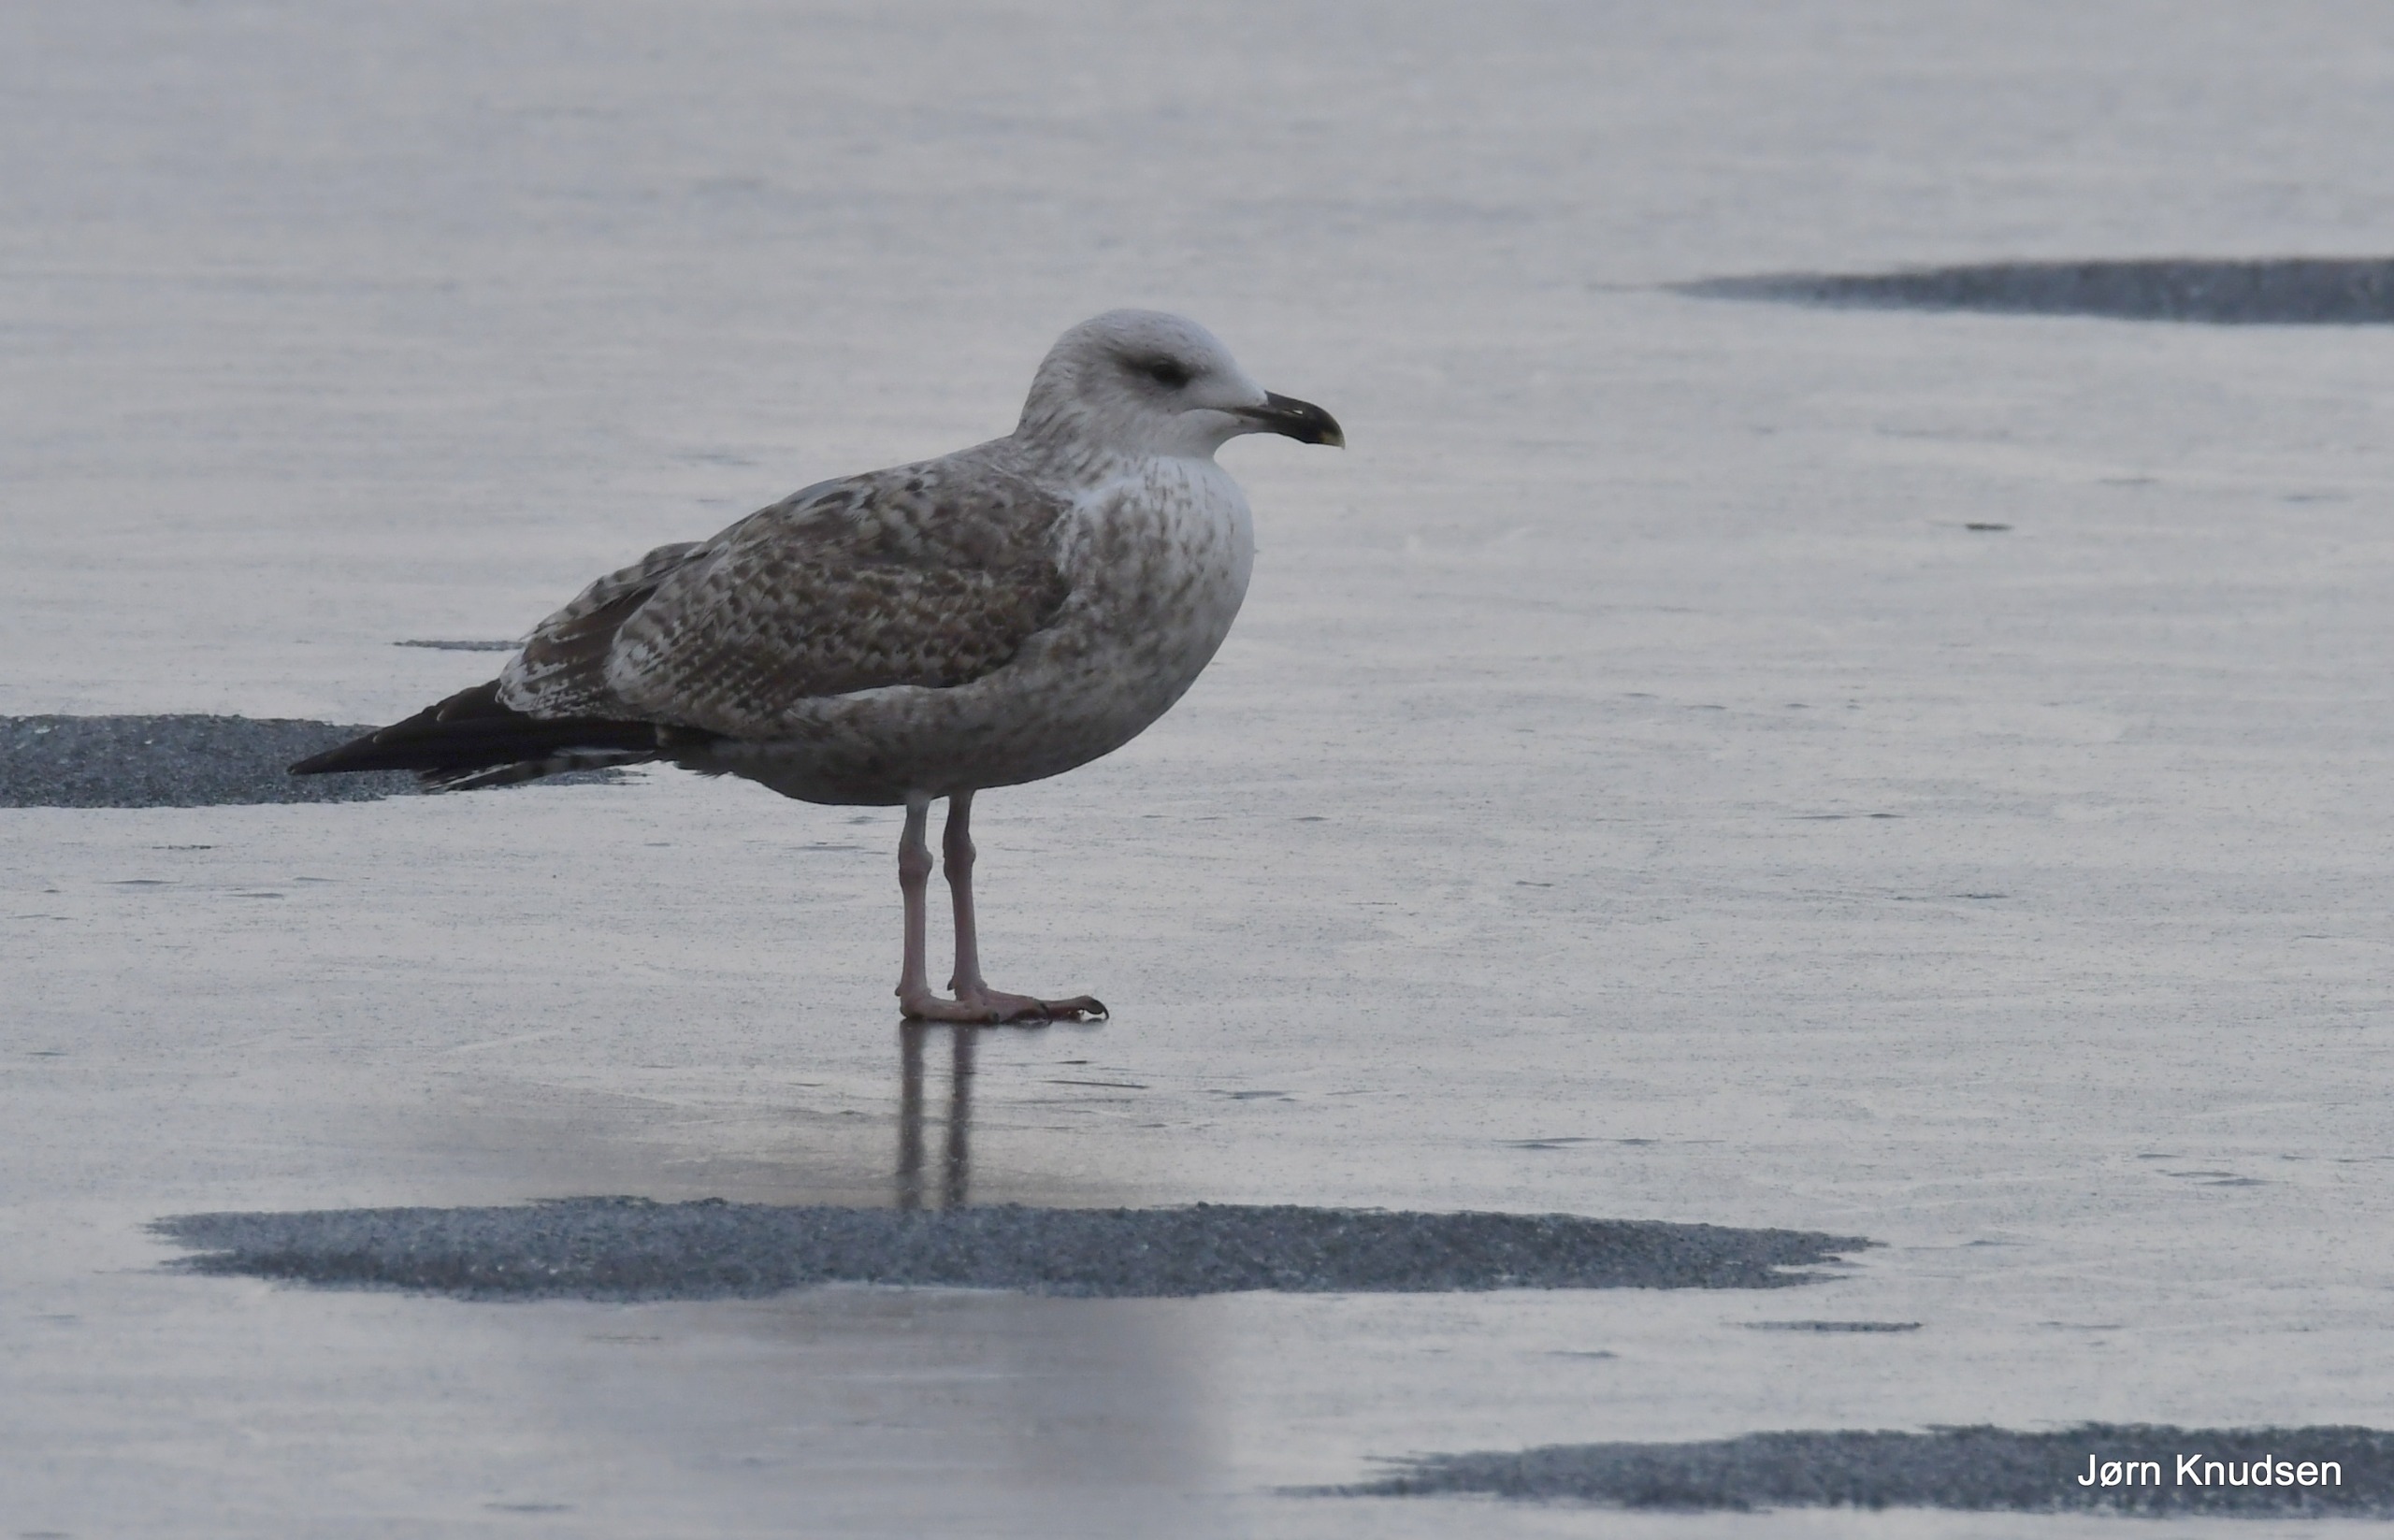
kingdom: Animalia
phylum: Chordata
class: Aves
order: Charadriiformes
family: Laridae
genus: Larus
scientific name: Larus argentatus
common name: Sølvmåge
